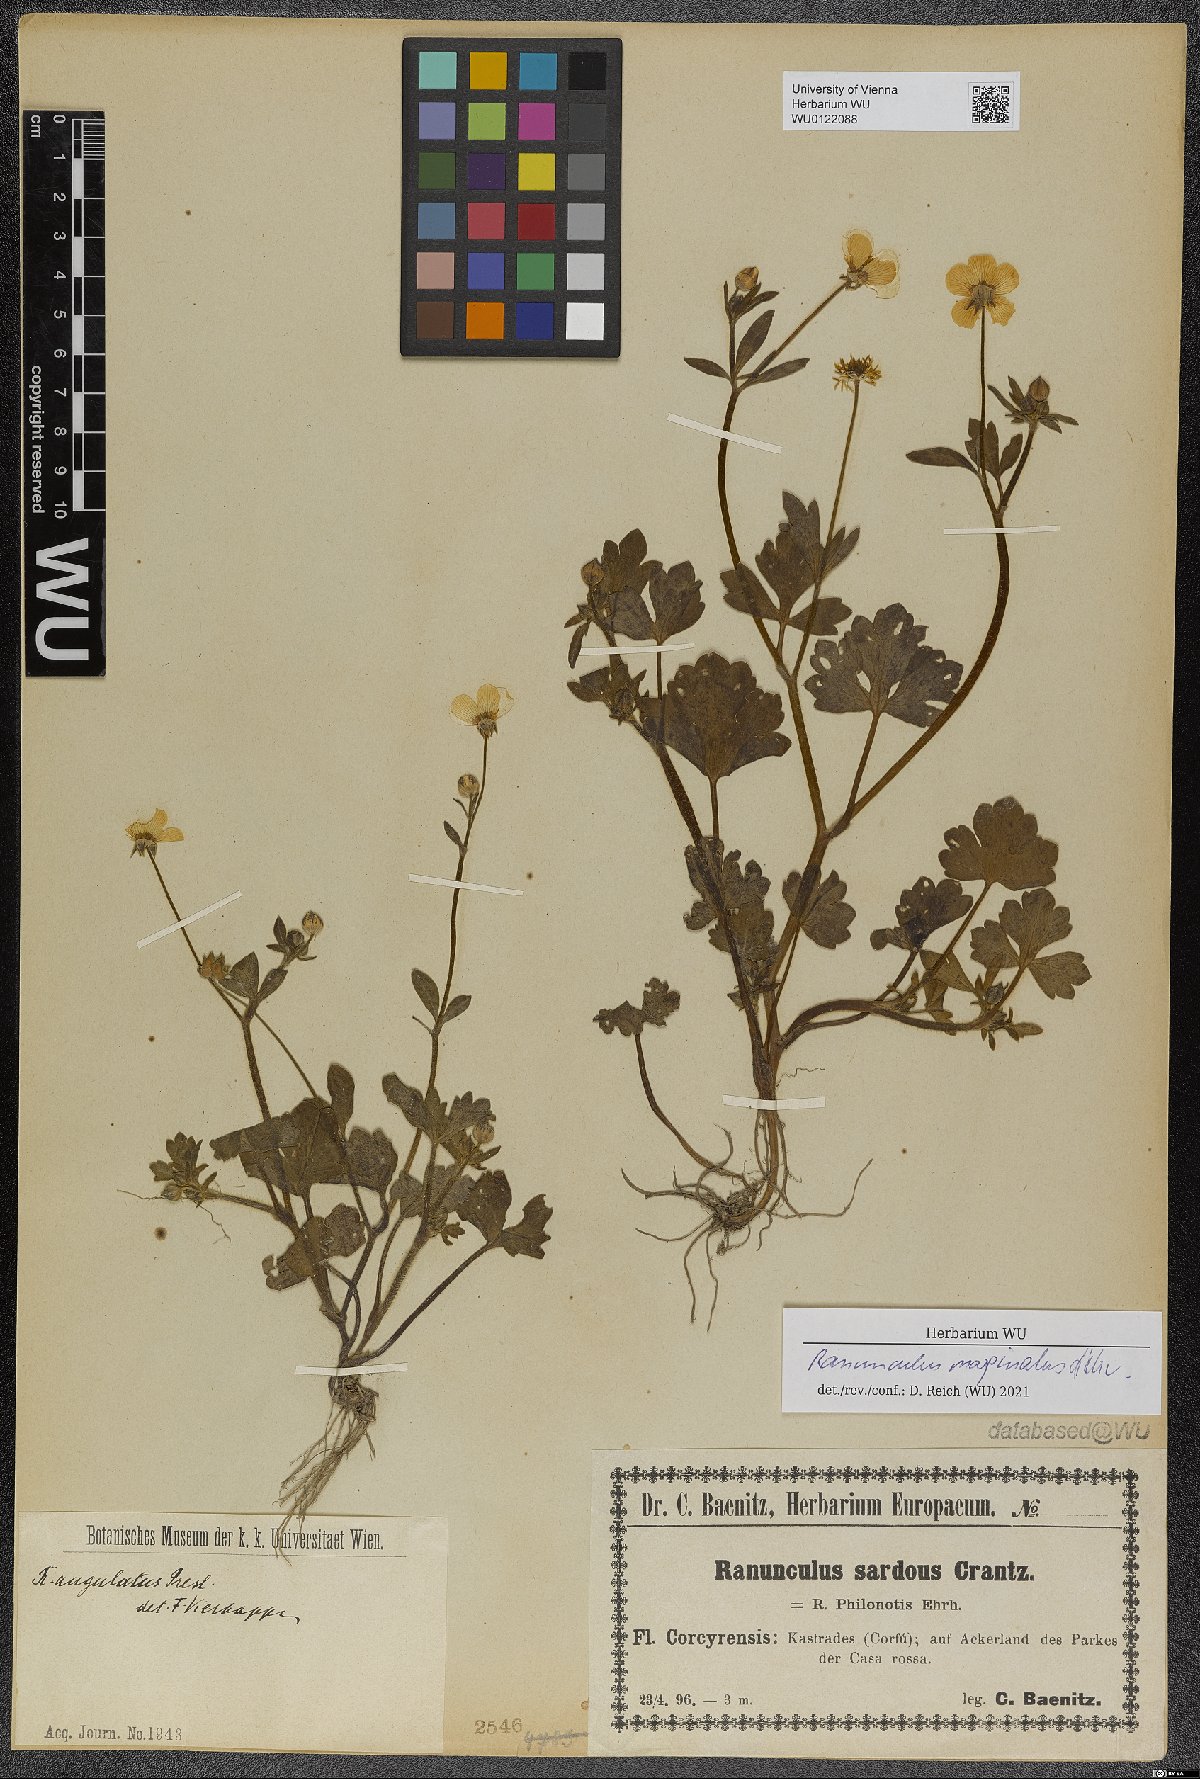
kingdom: Plantae
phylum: Tracheophyta
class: Magnoliopsida
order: Ranunculales
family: Ranunculaceae
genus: Ranunculus
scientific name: Ranunculus marginatus
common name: St. martin's buttercup
